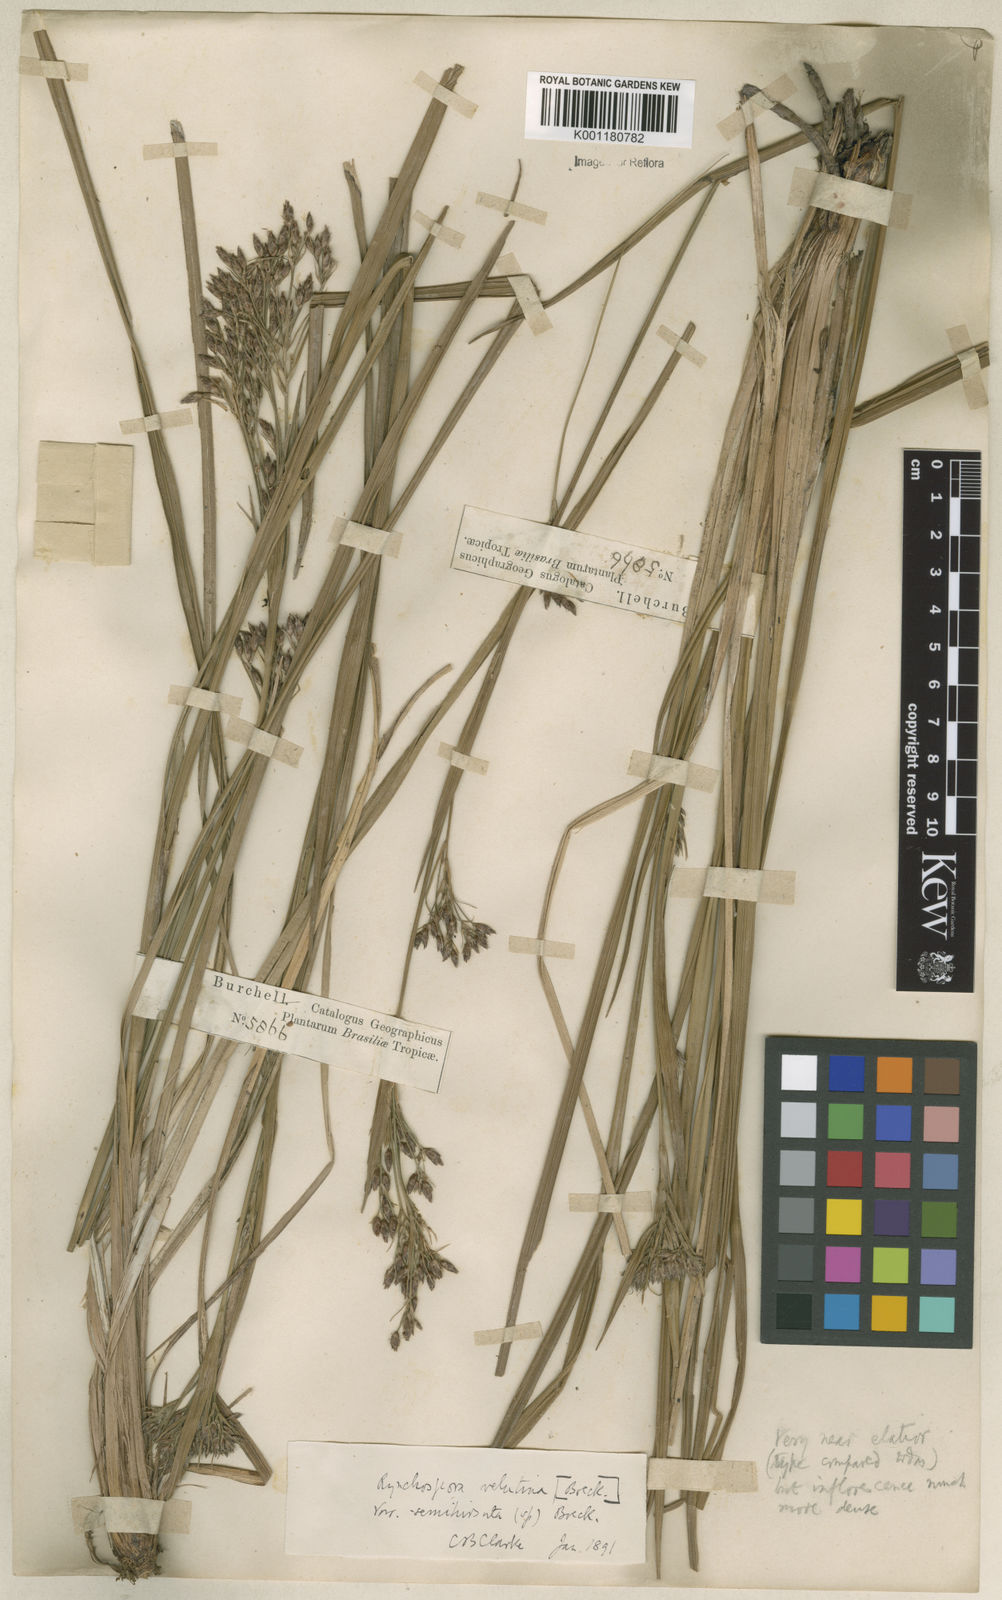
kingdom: Plantae
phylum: Tracheophyta
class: Liliopsida
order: Poales
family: Cyperaceae
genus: Rhynchospora
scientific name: Rhynchospora velutina
